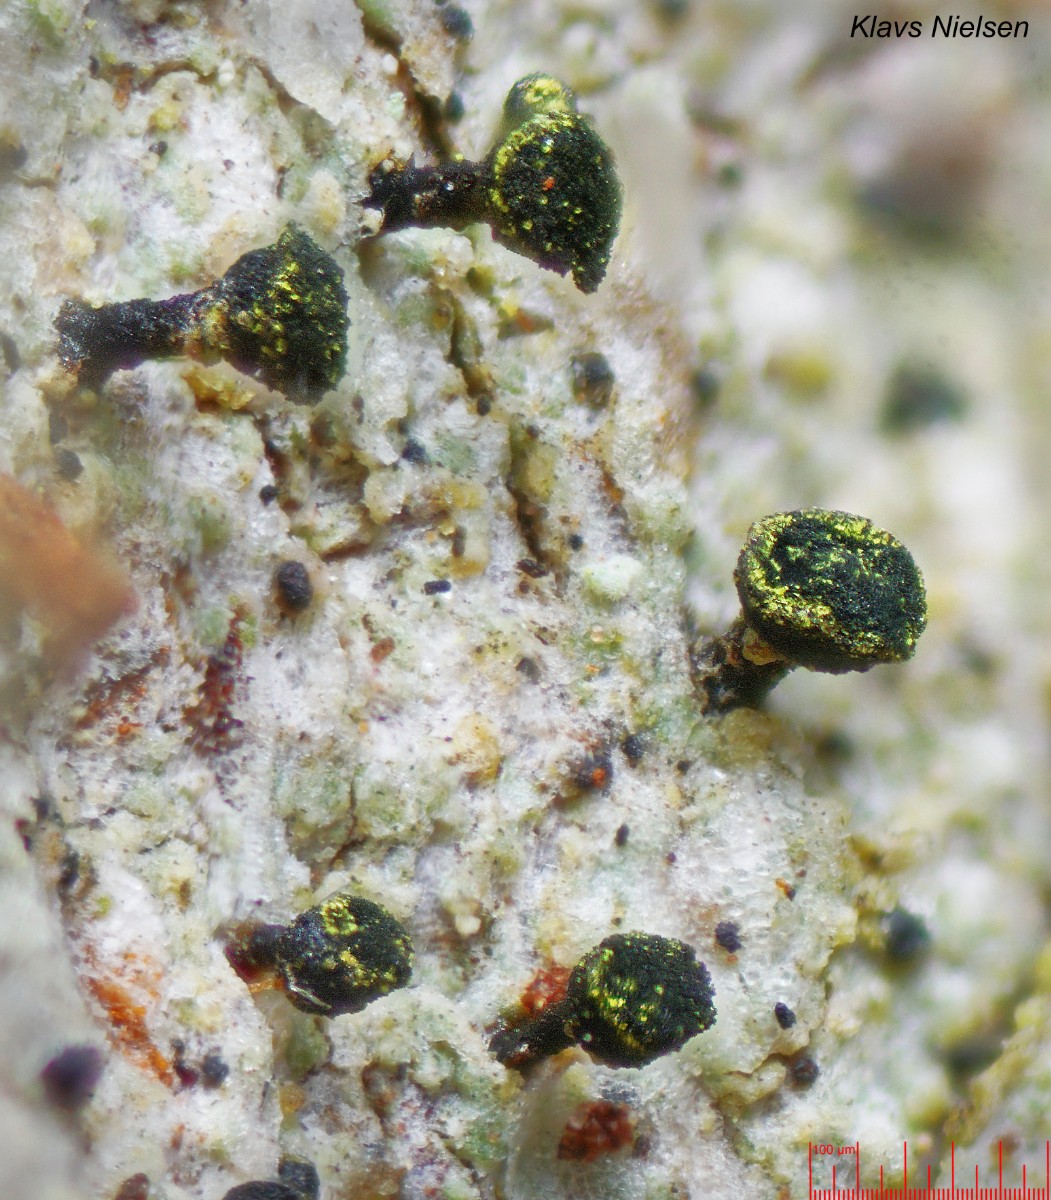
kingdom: Fungi
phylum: Ascomycota
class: Lecanoromycetes
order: Caliciales
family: Caliciaceae
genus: Calicium
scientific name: Calicium adspersum
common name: tyk nålelav
